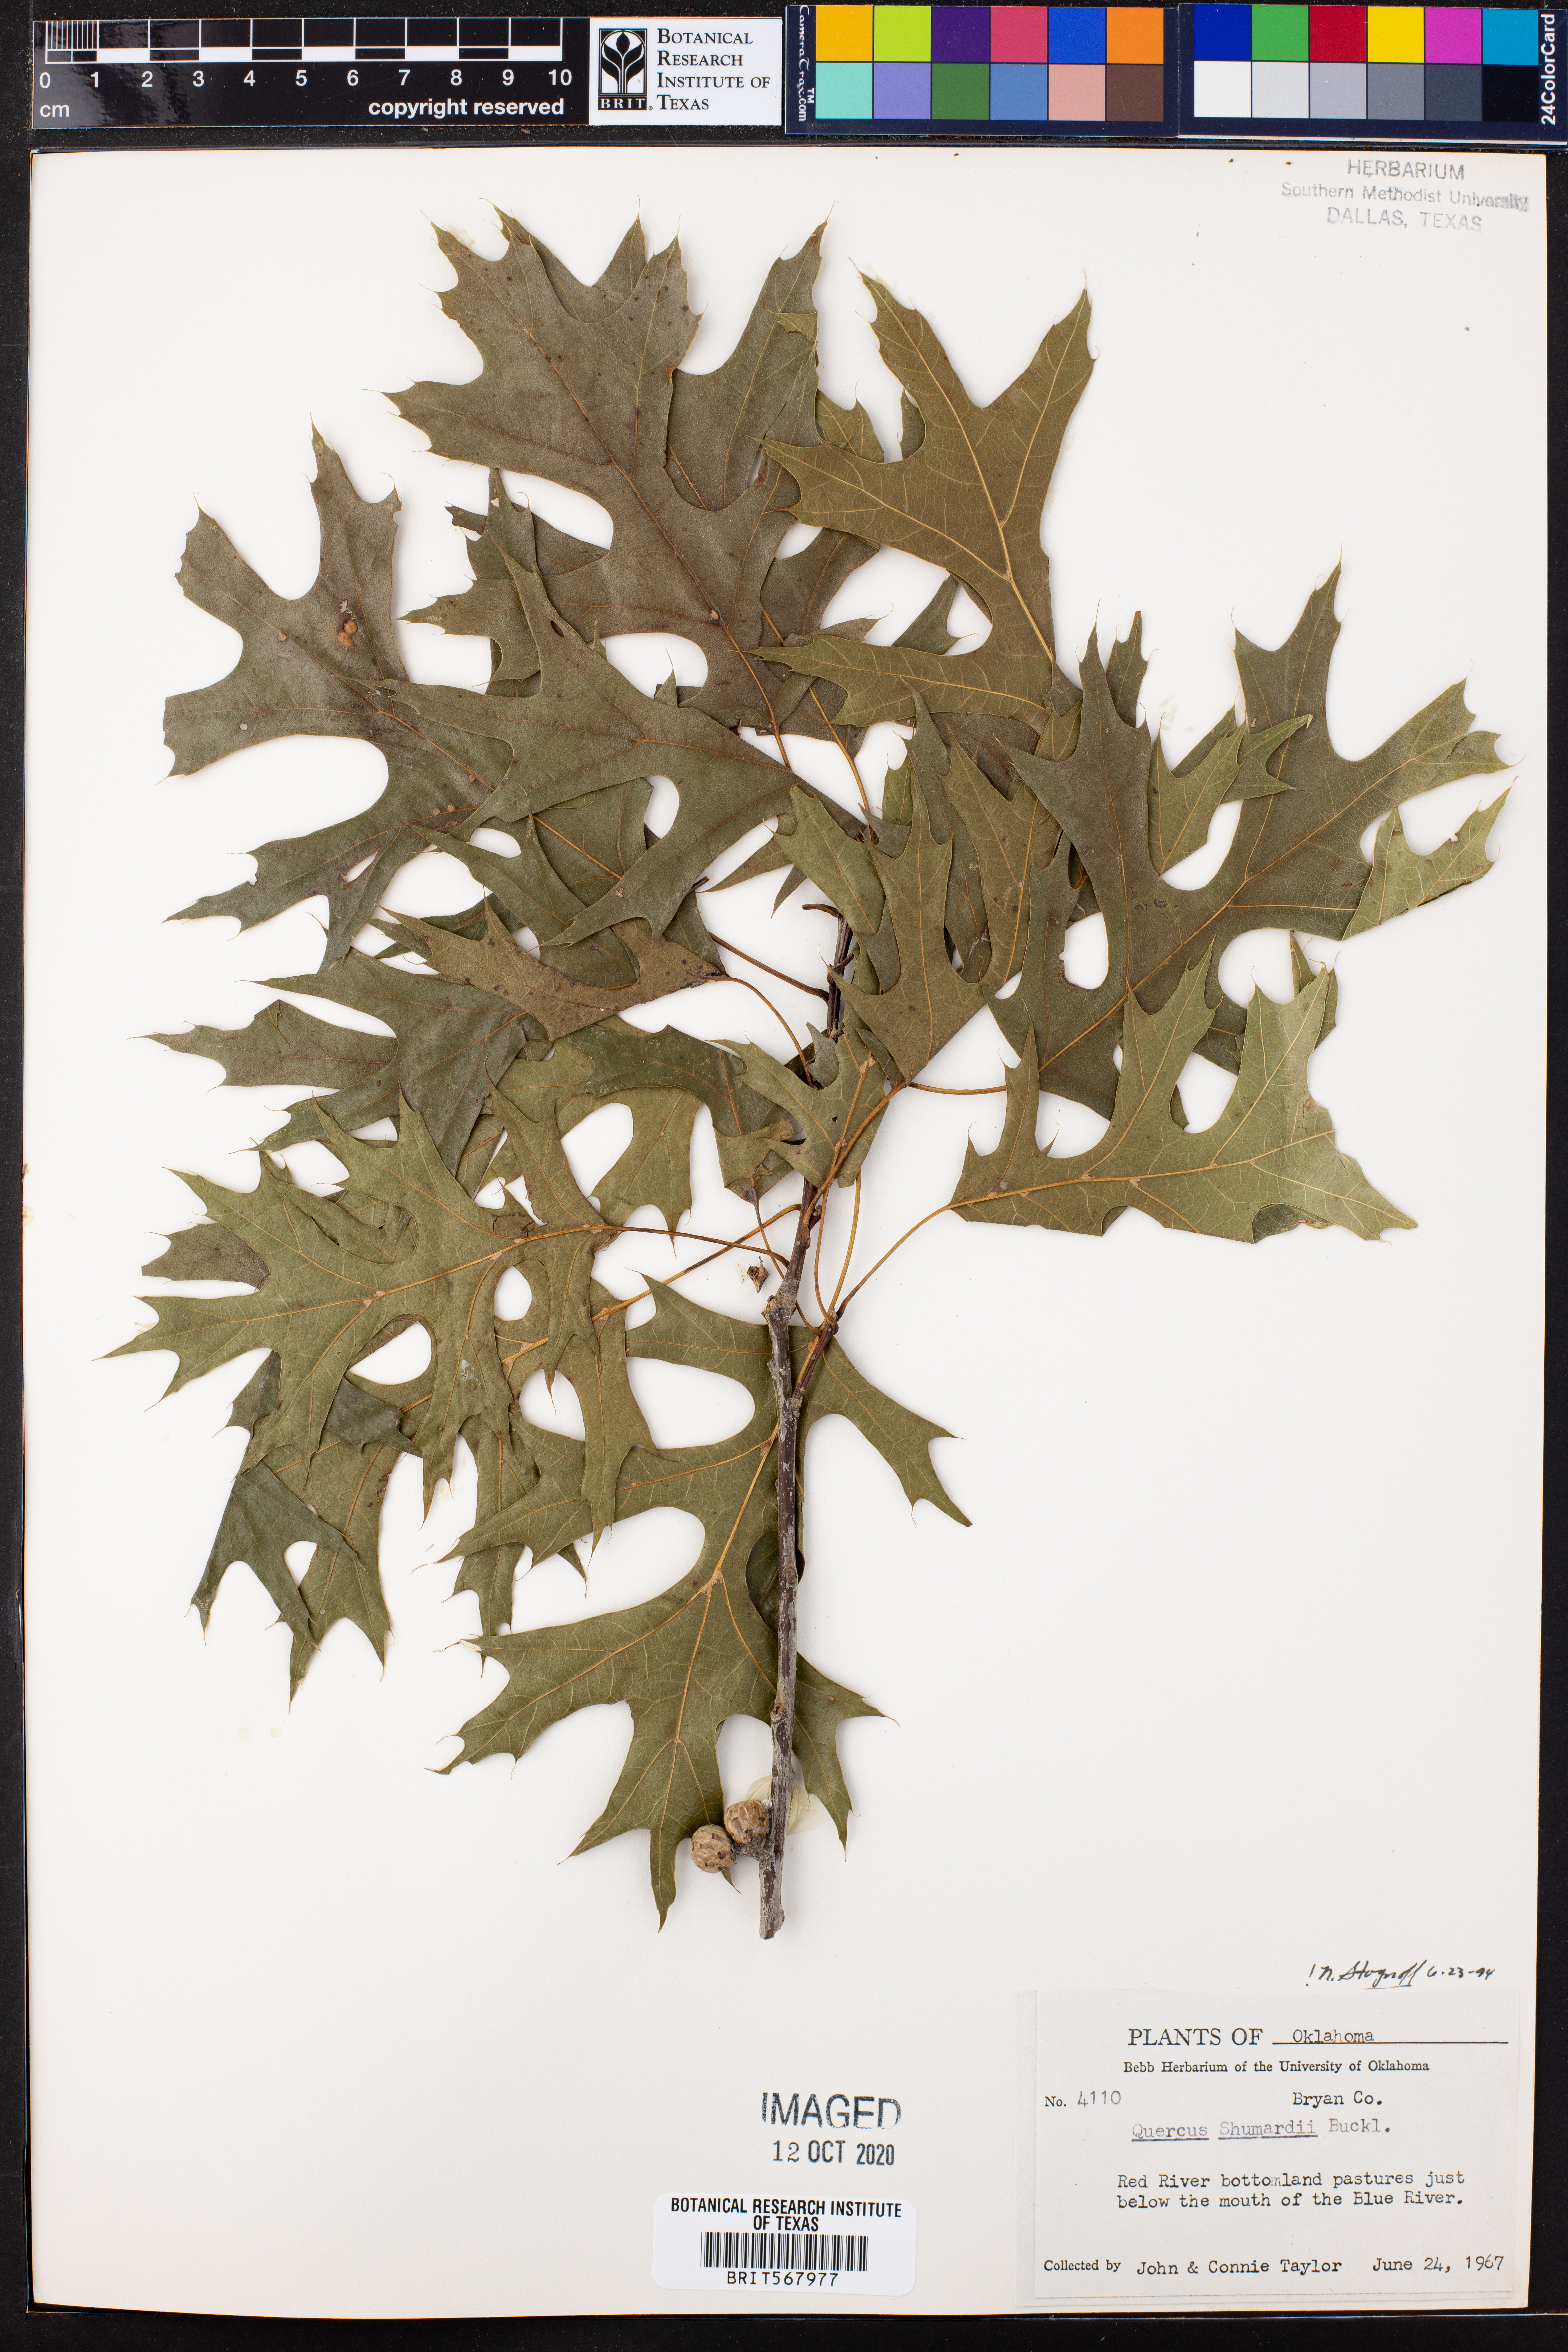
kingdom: Plantae
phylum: Tracheophyta
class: Magnoliopsida
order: Fagales
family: Fagaceae
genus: Quercus
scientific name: Quercus shumardii
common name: Shumard oak
